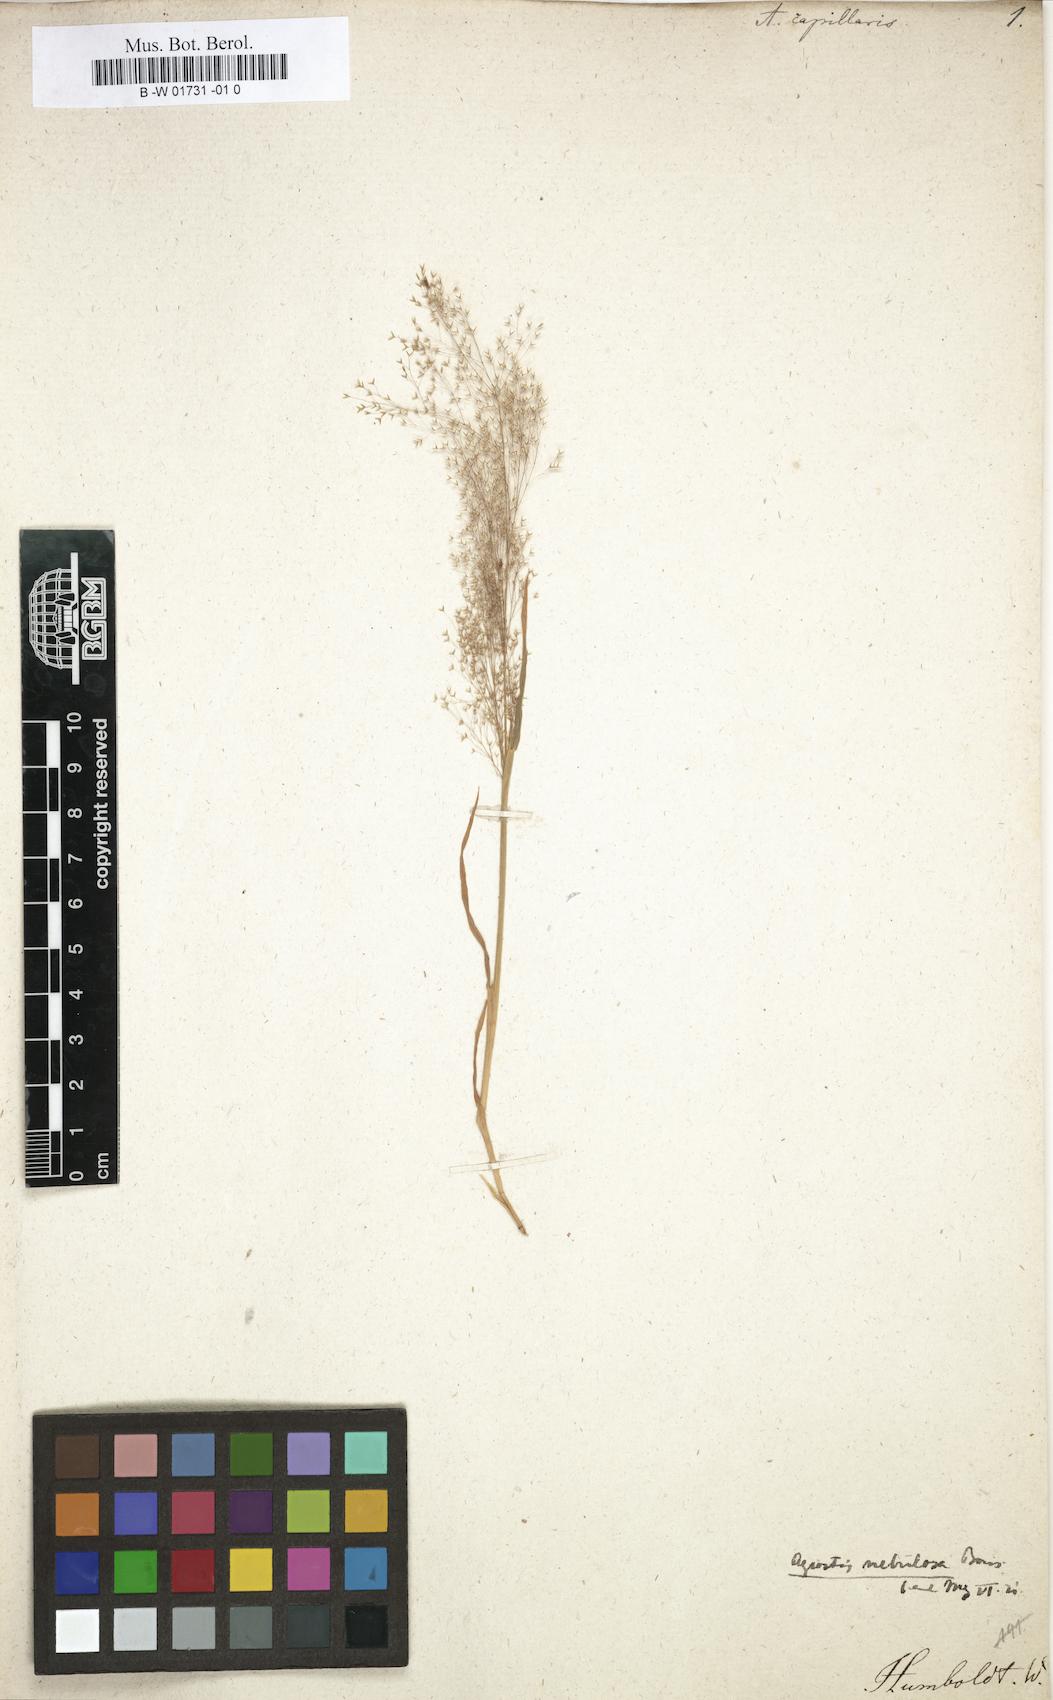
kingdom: Plantae
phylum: Tracheophyta
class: Liliopsida
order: Poales
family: Poaceae
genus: Agrostis
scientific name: Agrostis capillaris
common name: Colonial bentgrass
